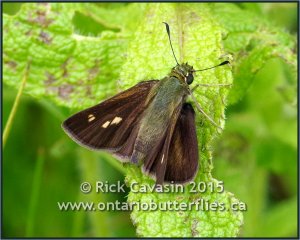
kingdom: Animalia
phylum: Arthropoda
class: Insecta
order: Lepidoptera
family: Hesperiidae
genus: Polites
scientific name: Polites egeremet
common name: Northern Broken-Dash
